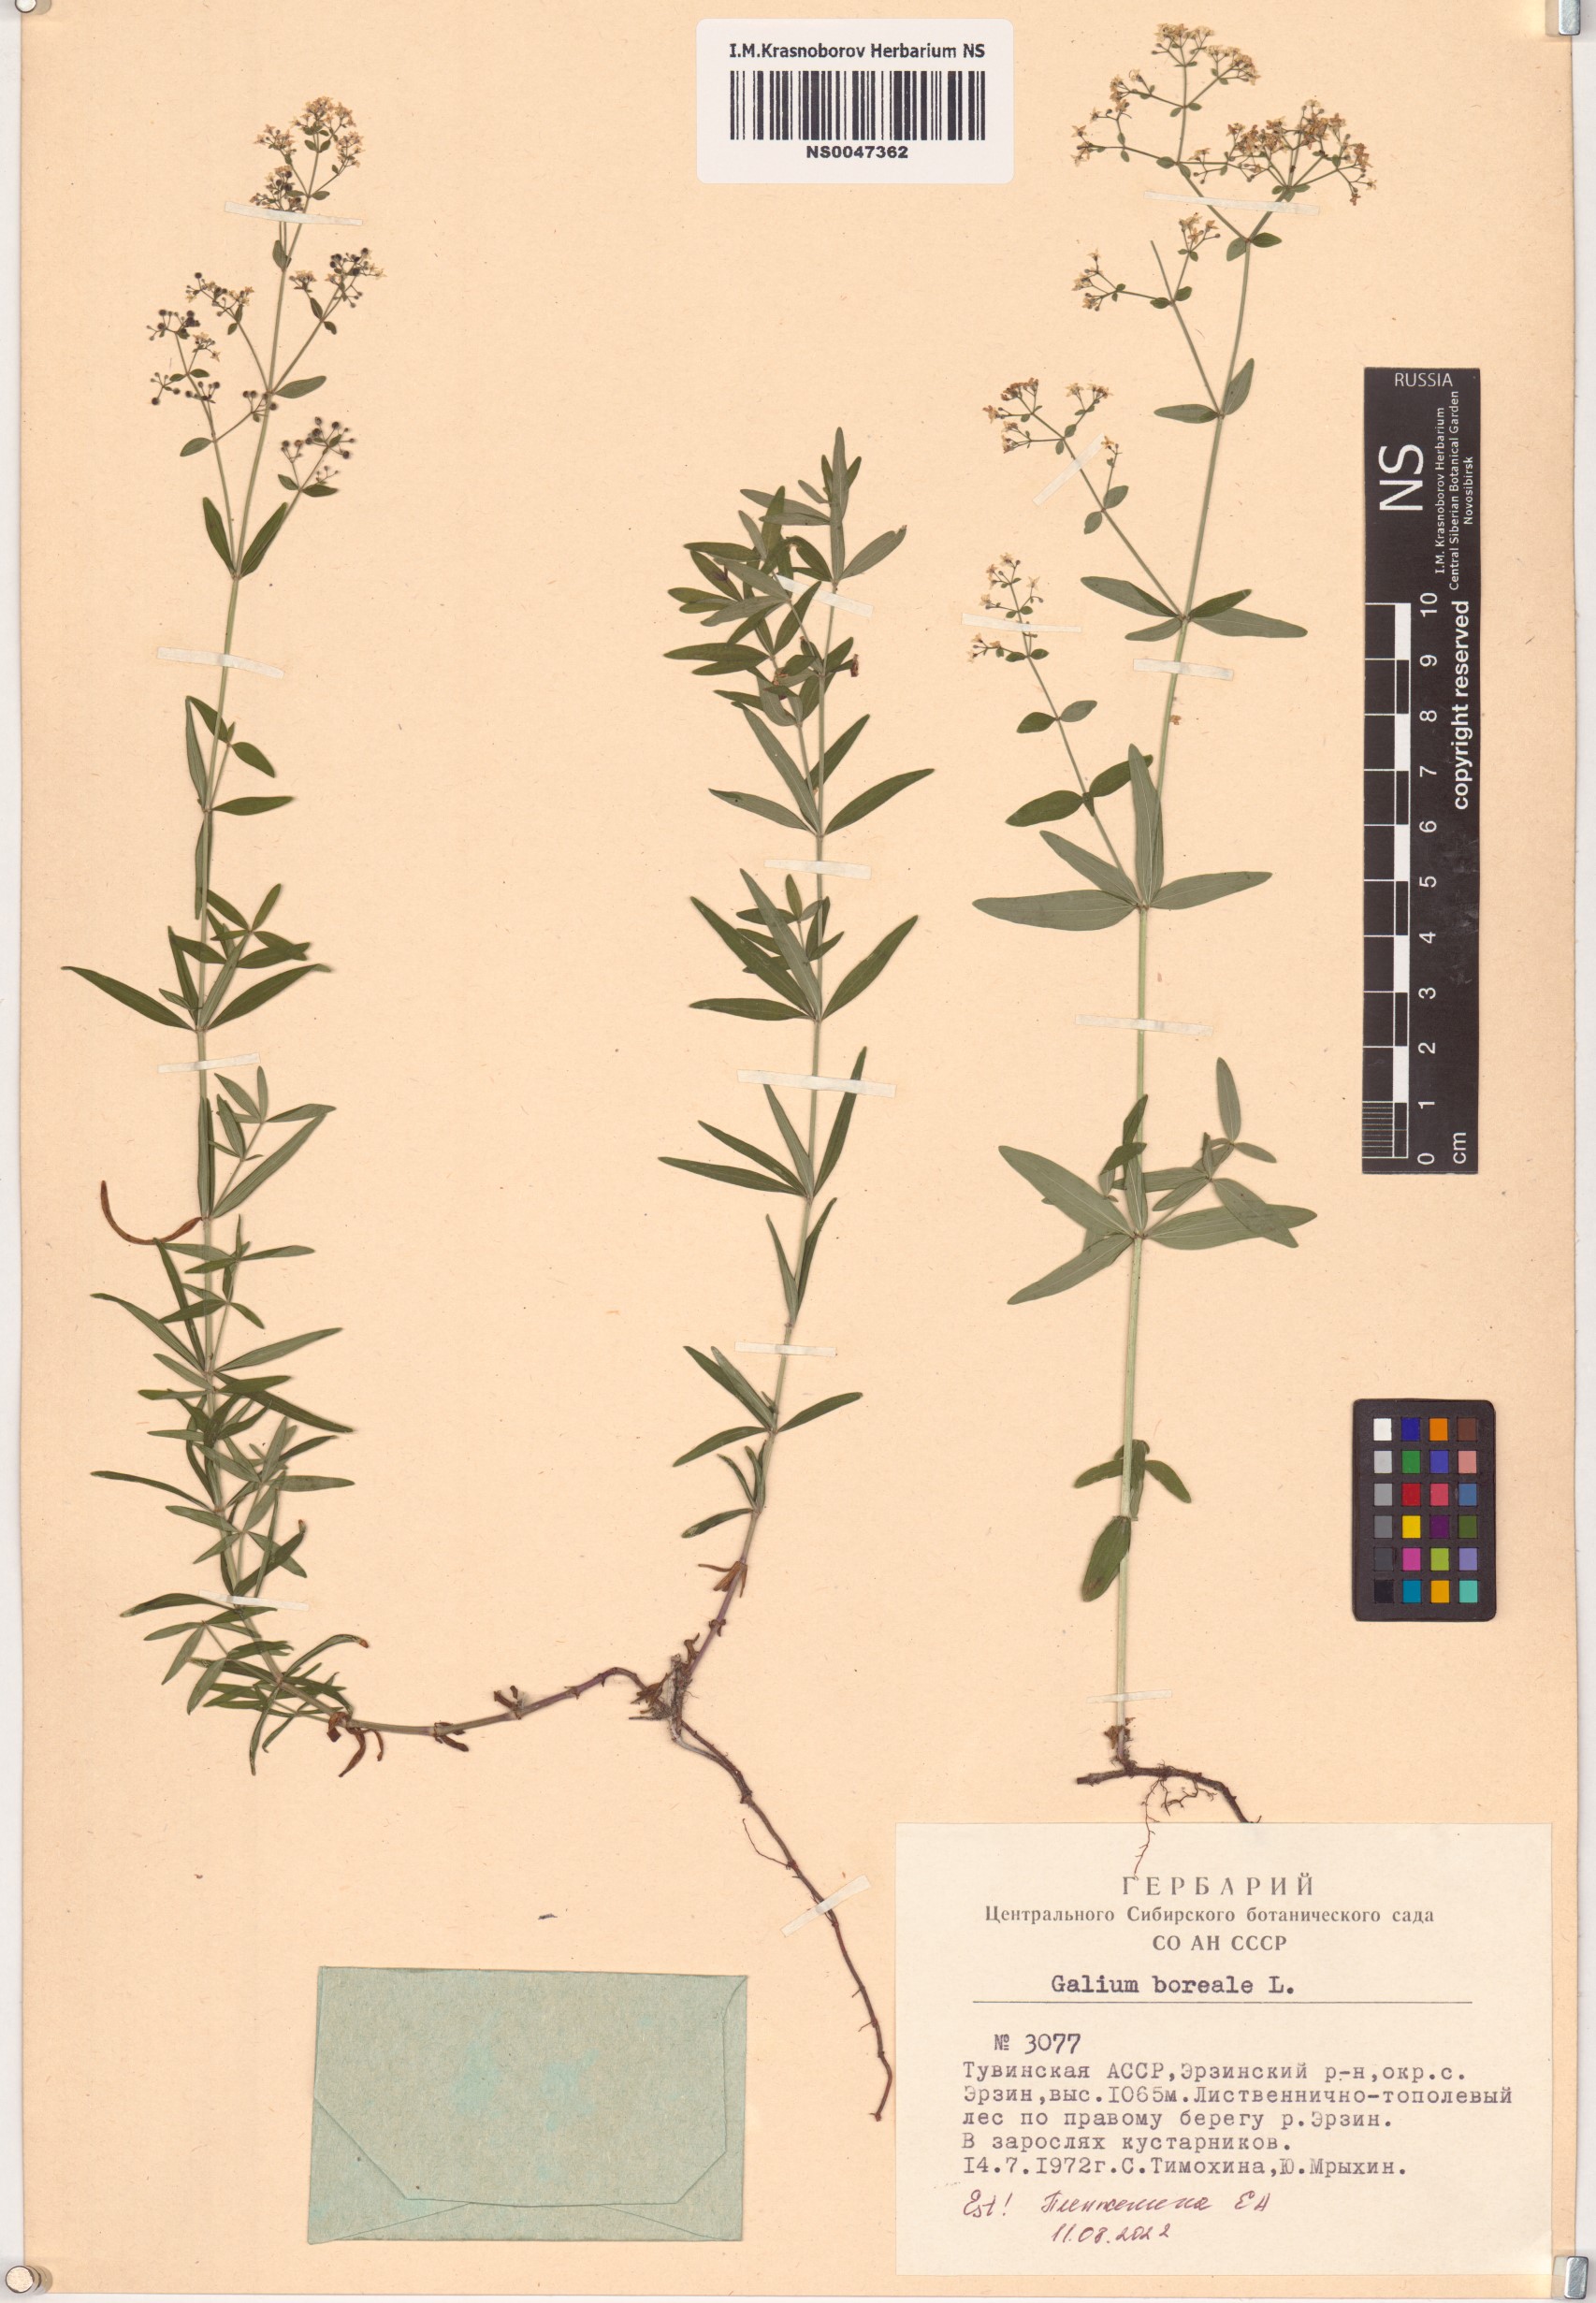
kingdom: Plantae
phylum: Tracheophyta
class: Magnoliopsida
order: Gentianales
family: Rubiaceae
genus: Galium
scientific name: Galium boreale
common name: Northern bedstraw
